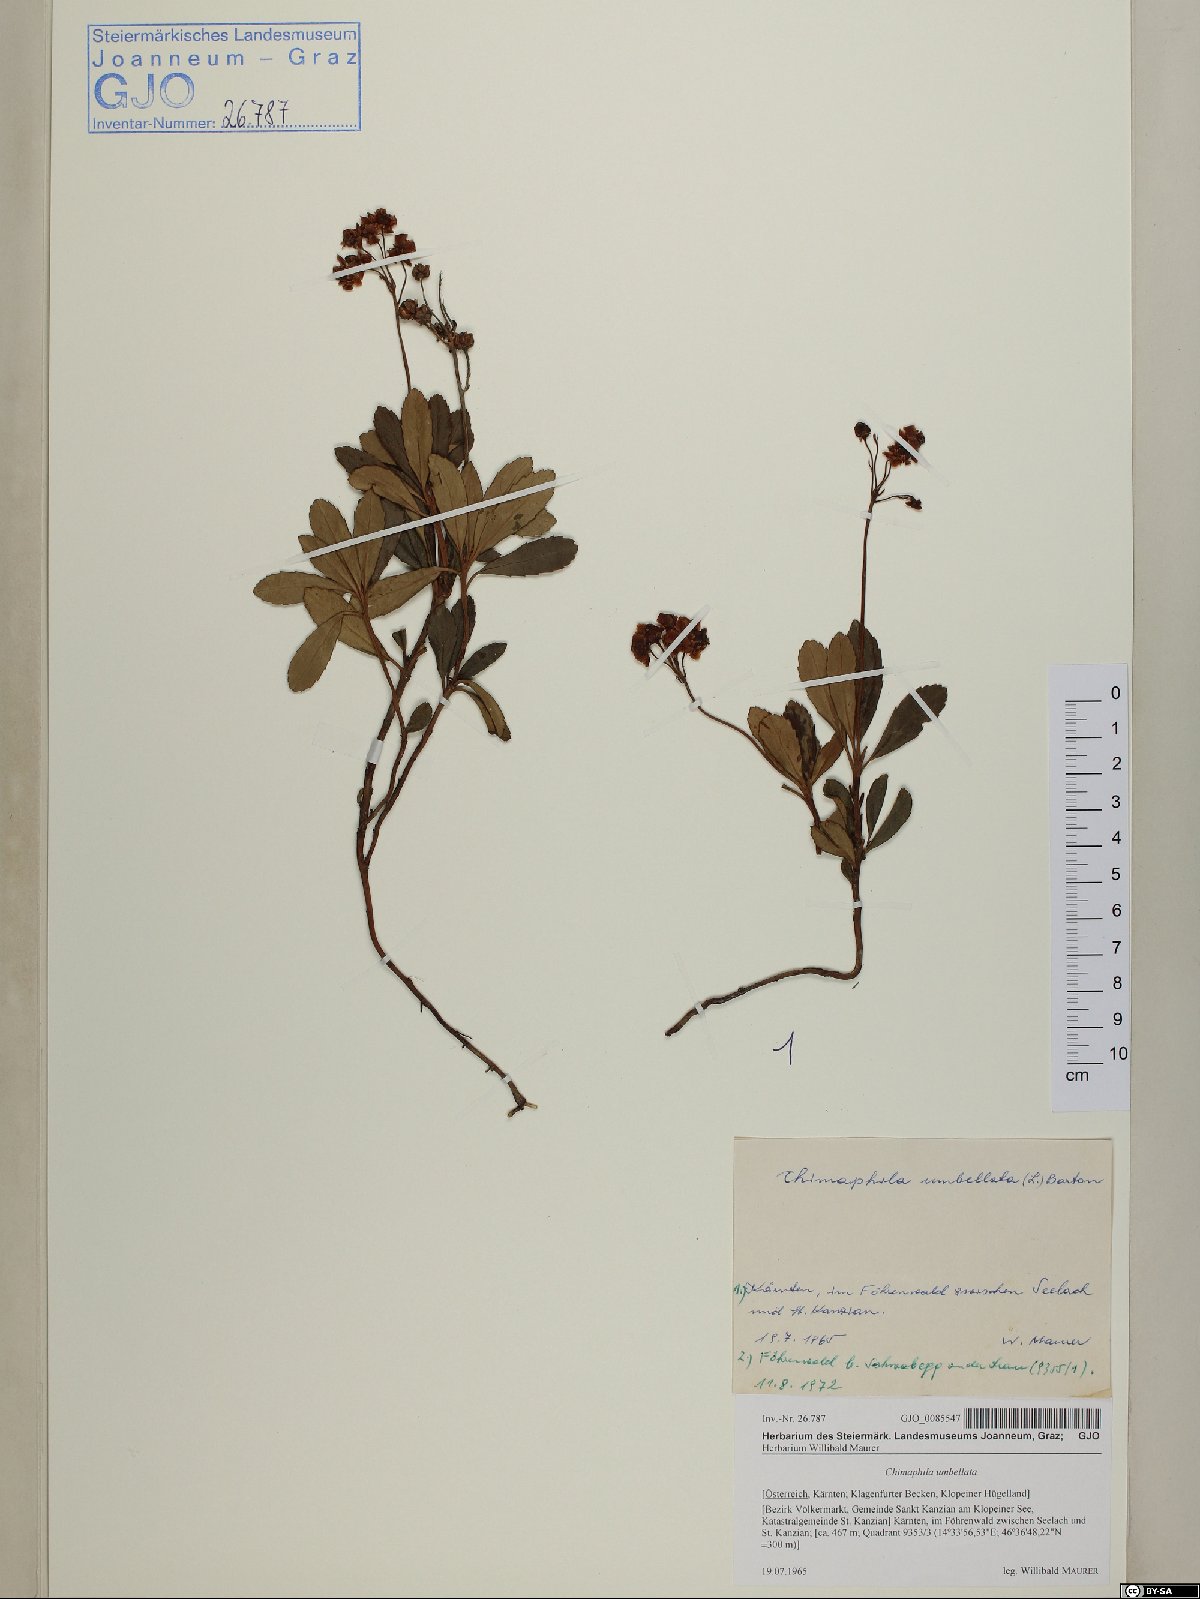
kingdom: Plantae
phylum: Tracheophyta
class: Magnoliopsida
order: Ericales
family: Ericaceae
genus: Chimaphila
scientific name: Chimaphila umbellata
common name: Pipsissewa
